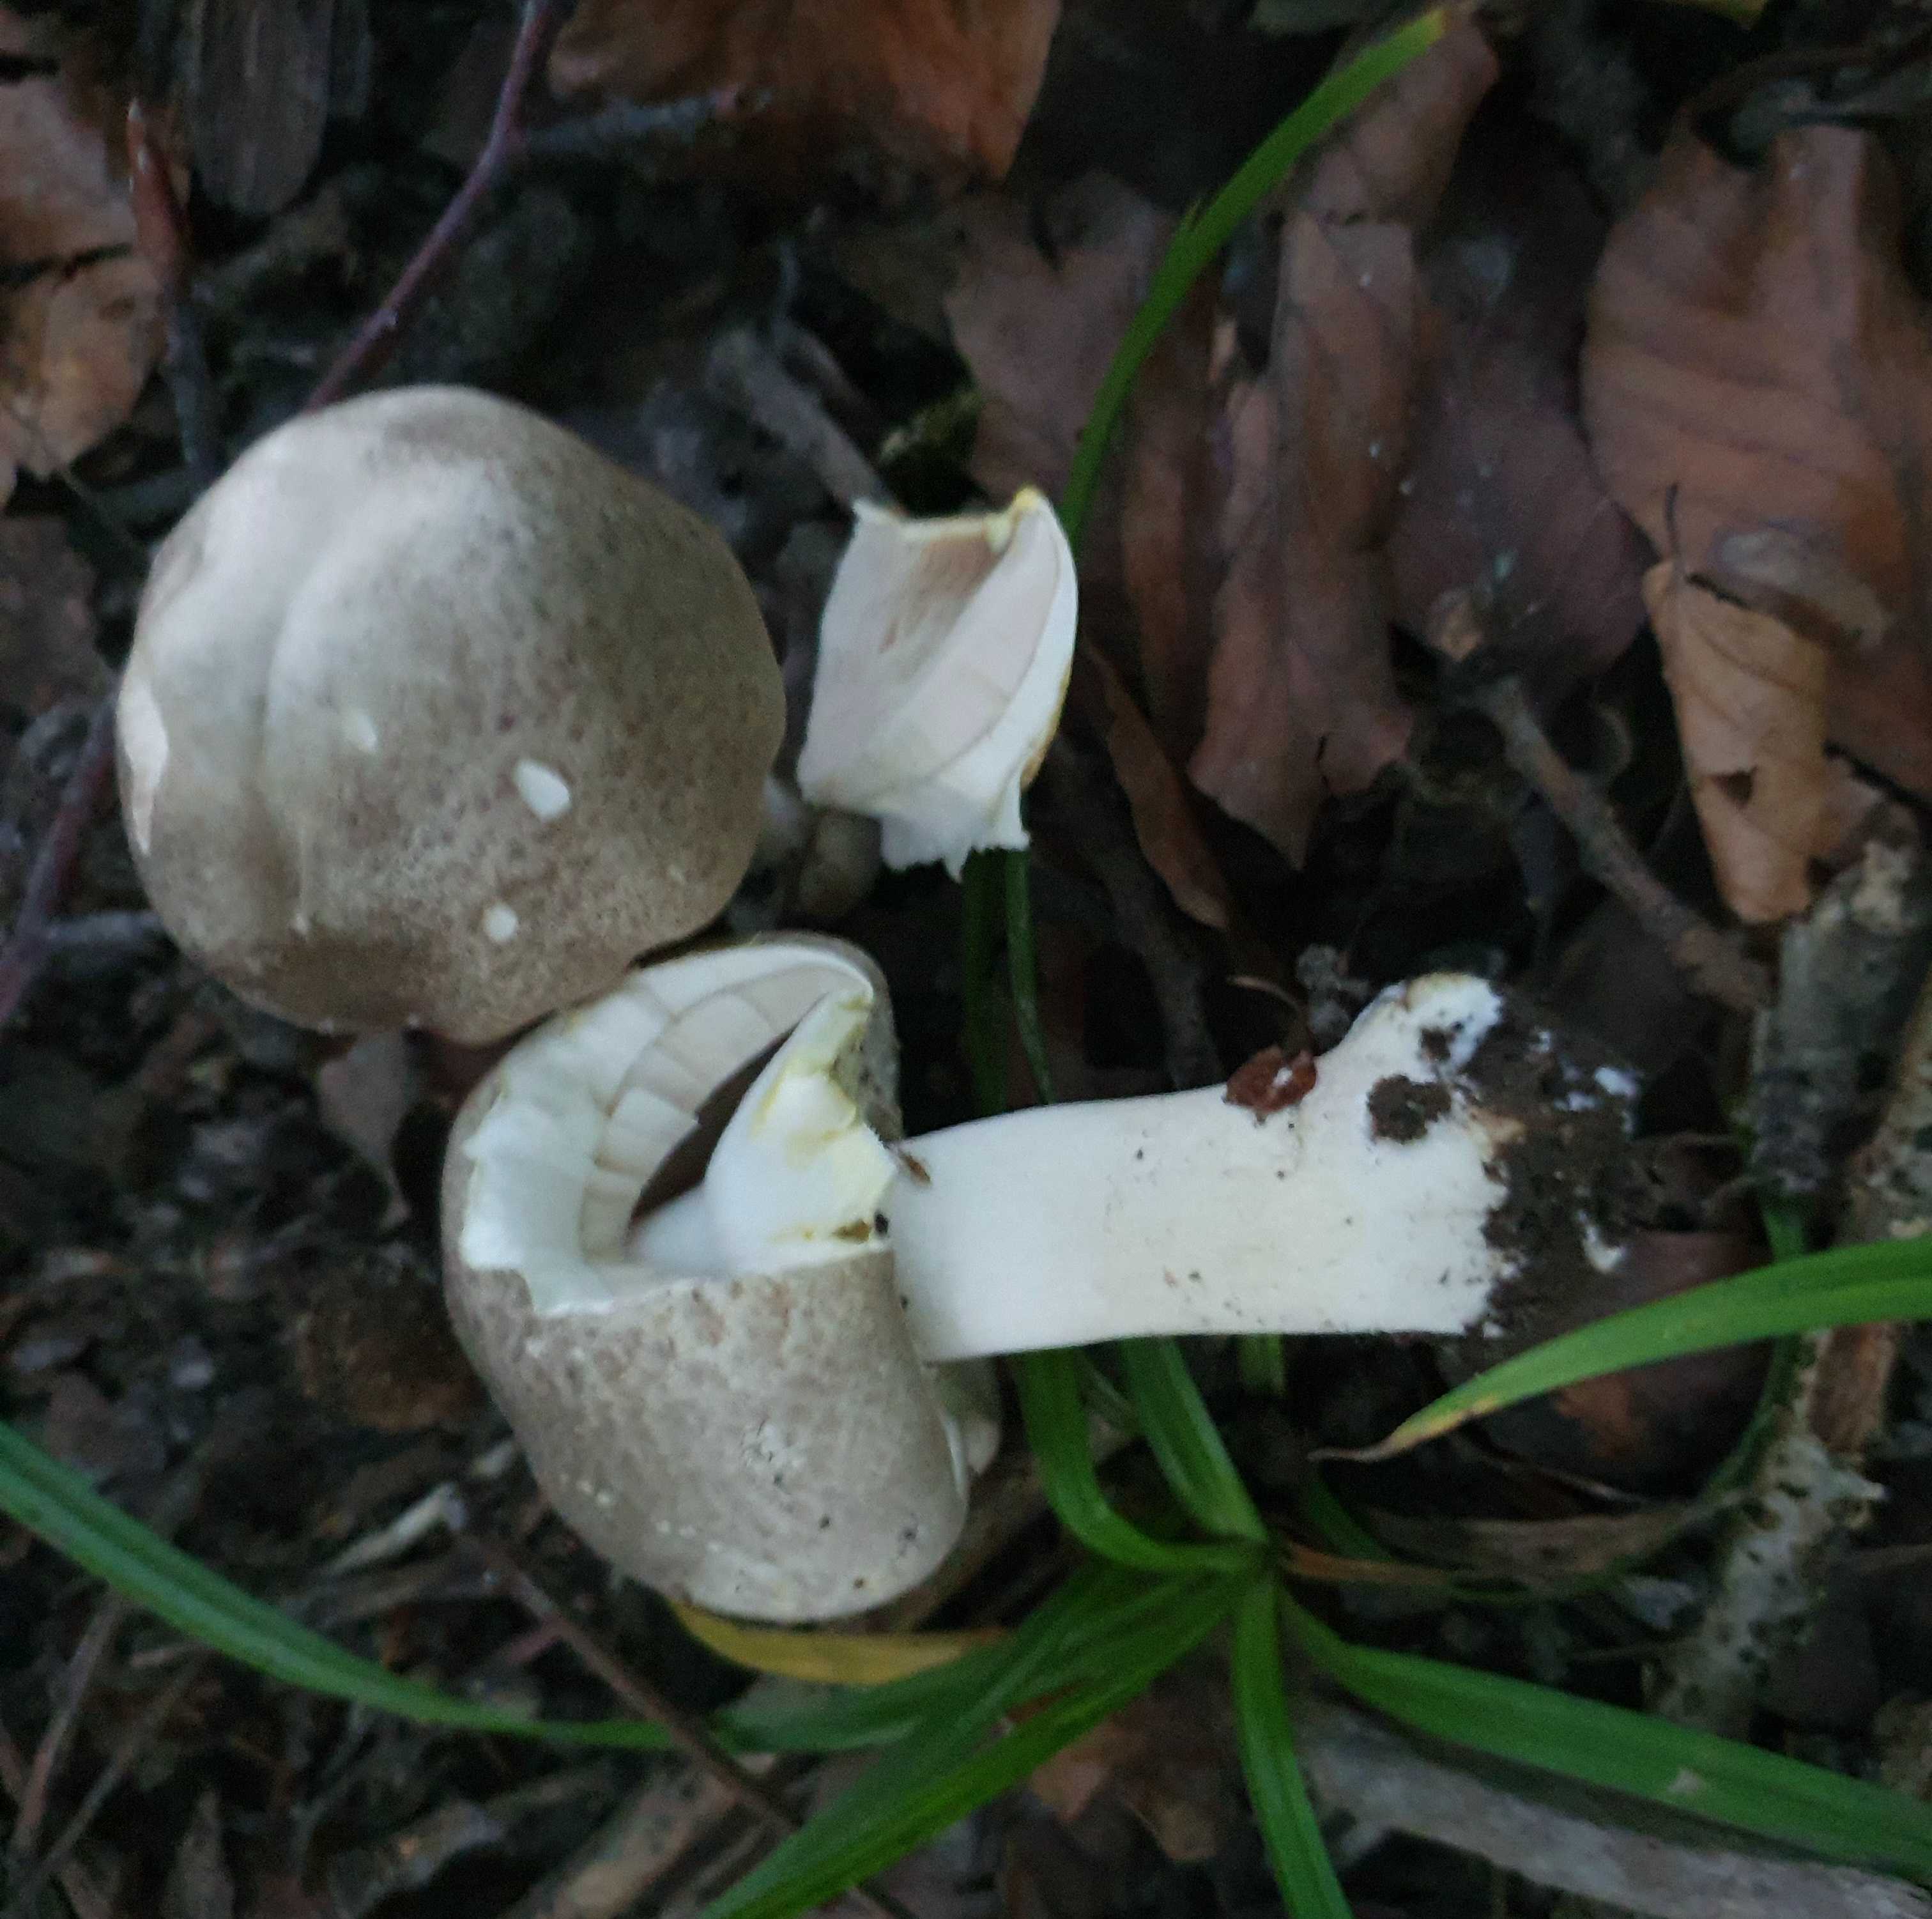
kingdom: Fungi
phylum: Basidiomycota
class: Agaricomycetes
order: Agaricales
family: Agaricaceae
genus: Agaricus
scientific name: Agaricus moelleri
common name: perlehøne-champignon
